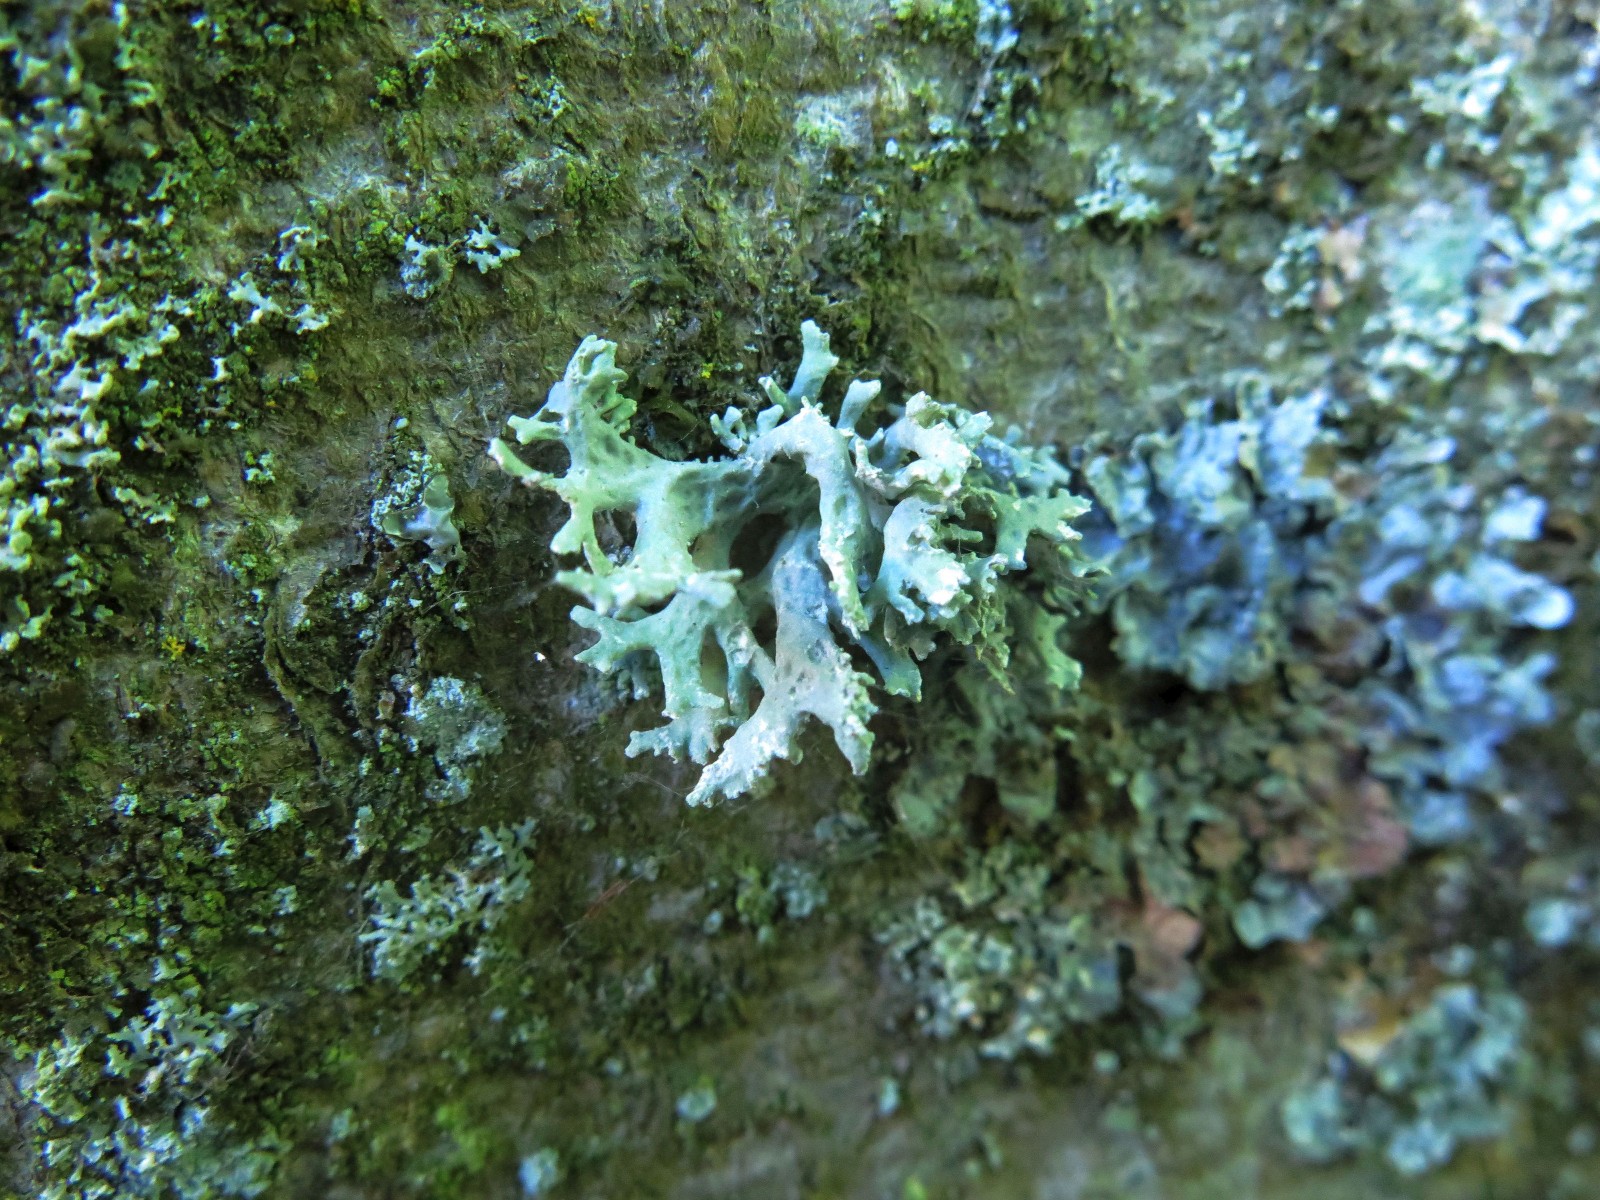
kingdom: Fungi
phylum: Ascomycota
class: Lecanoromycetes
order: Lecanorales
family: Parmeliaceae
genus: Evernia
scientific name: Evernia prunastri
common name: almindelig slåenlav
